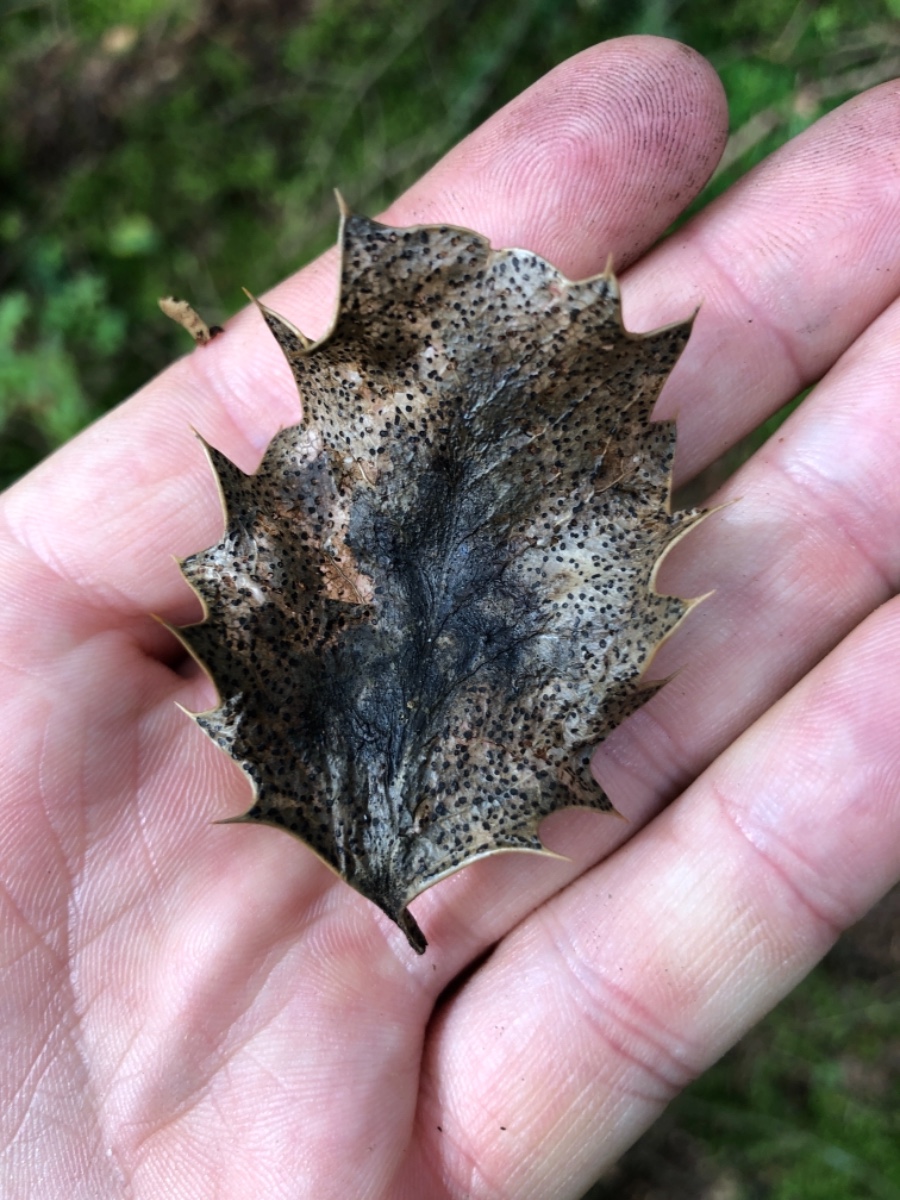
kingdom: Fungi
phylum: Ascomycota
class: Leotiomycetes
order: Helotiales
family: Cenangiaceae
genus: Trochila
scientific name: Trochila ilicina
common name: kristtorn-lågskive
